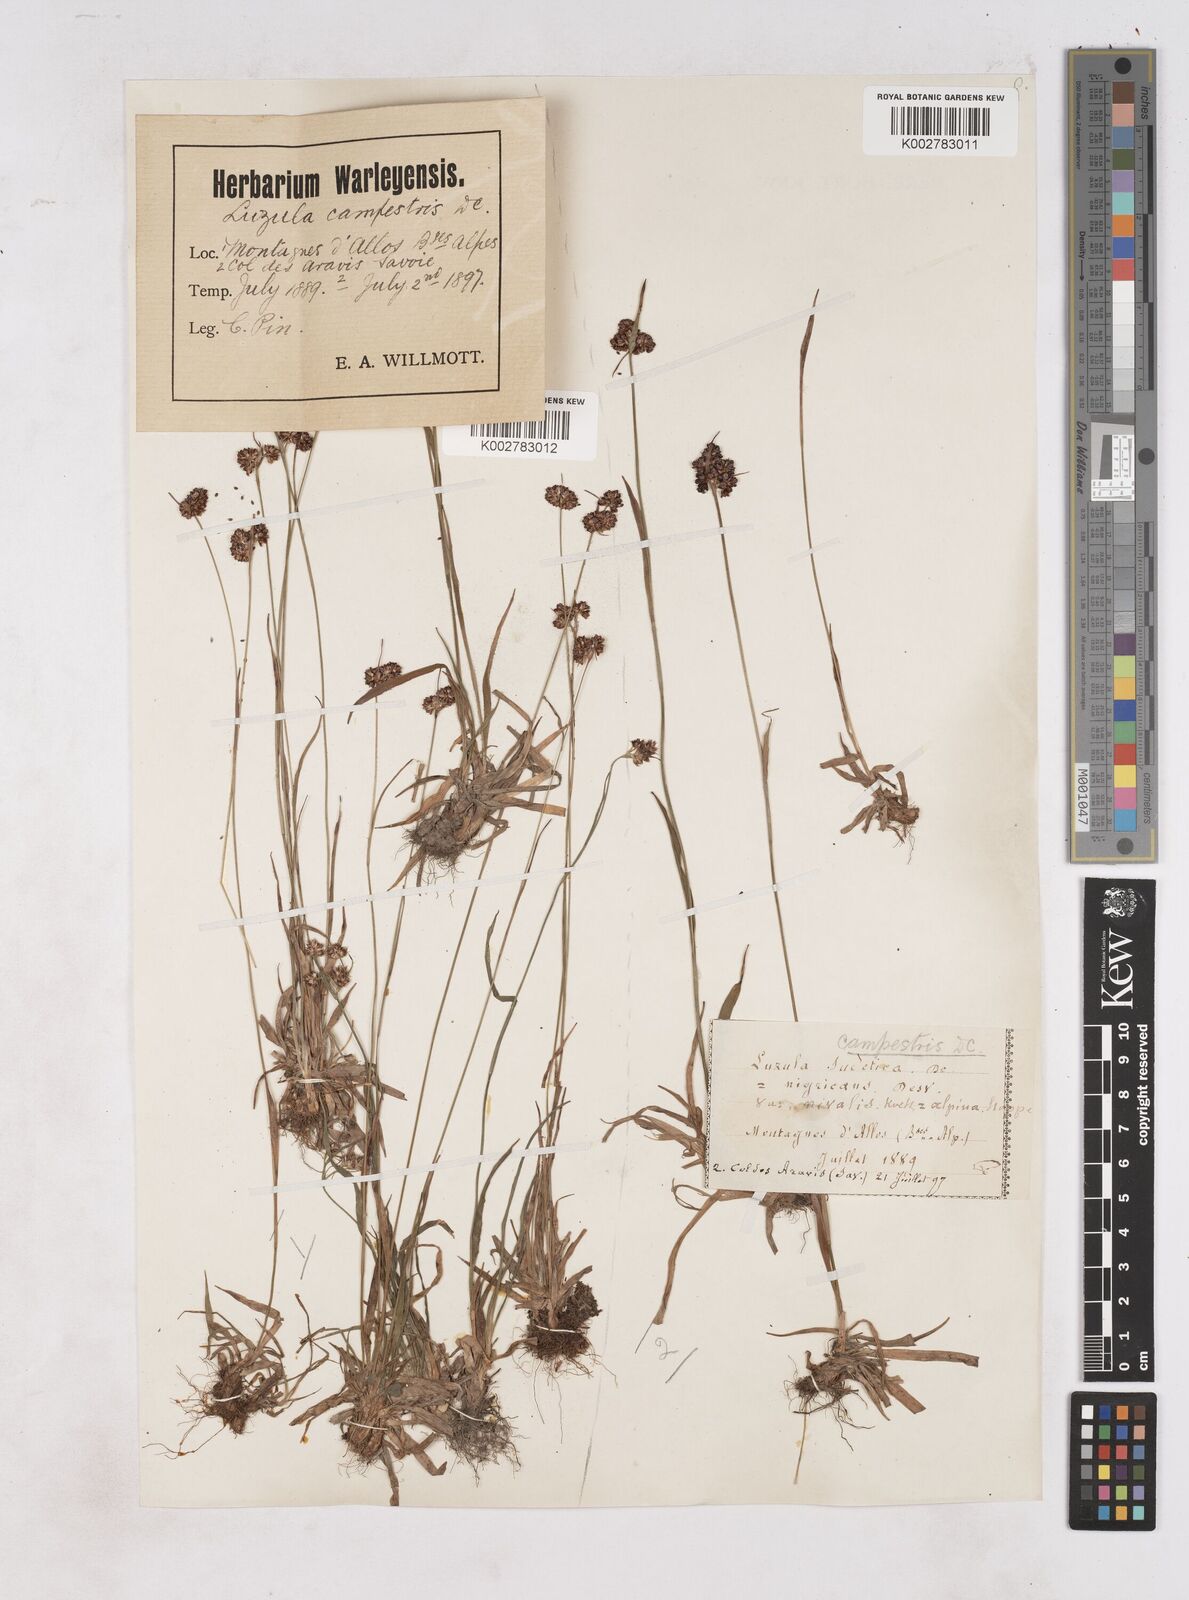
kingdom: Plantae
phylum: Tracheophyta
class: Liliopsida
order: Poales
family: Juncaceae
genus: Luzula
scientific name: Luzula campestris
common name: Field wood-rush
